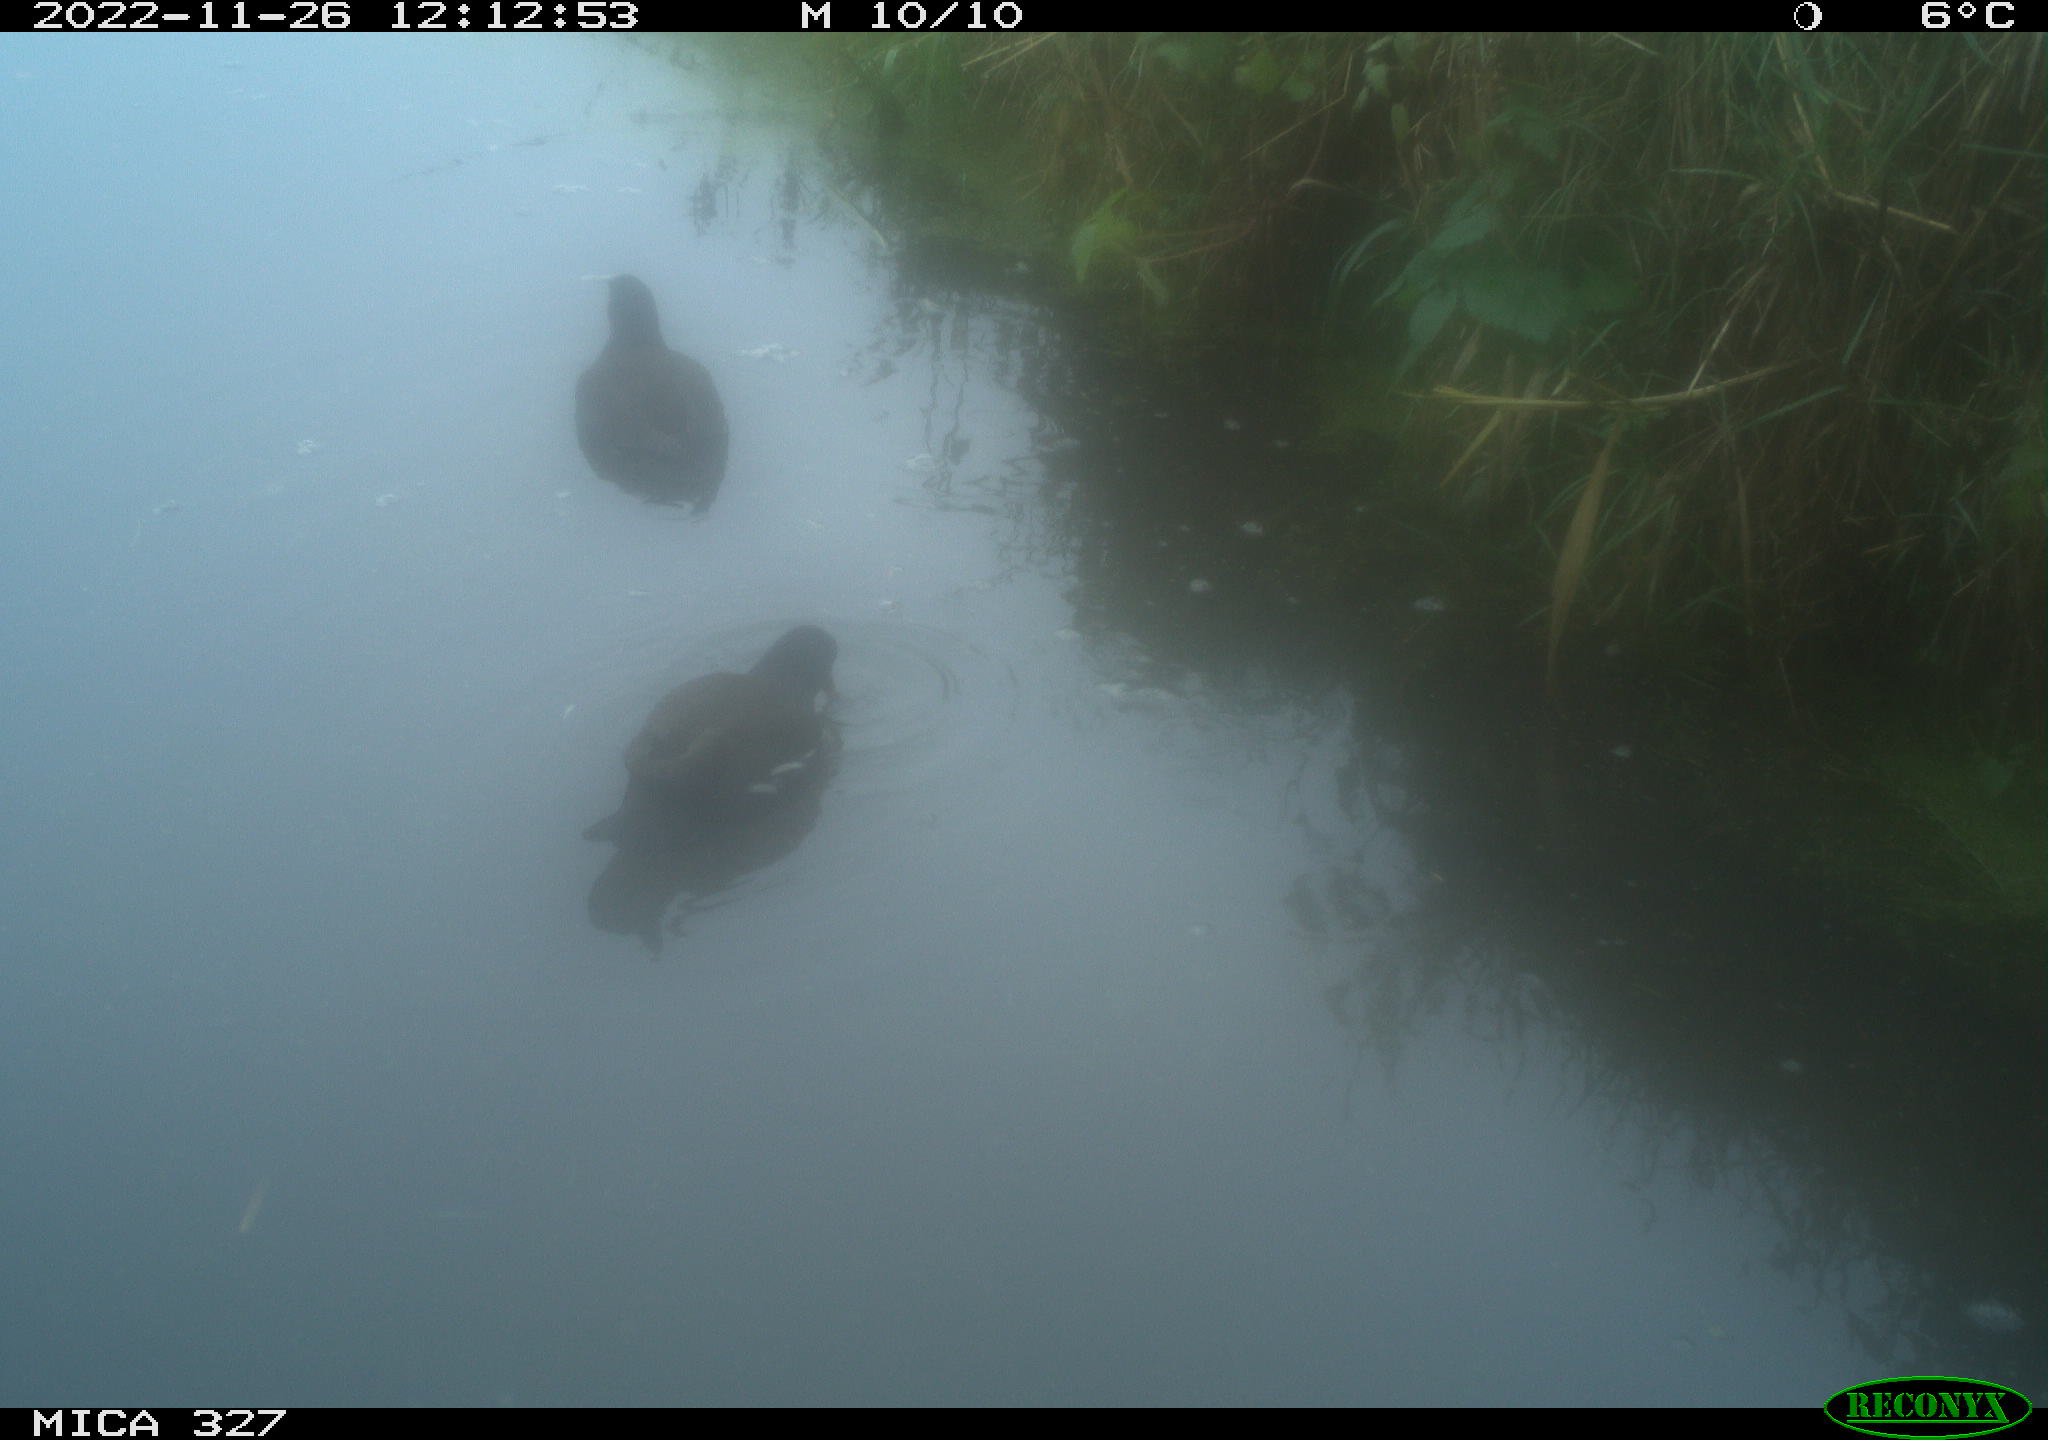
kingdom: Animalia
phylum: Chordata
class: Aves
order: Gruiformes
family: Rallidae
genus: Gallinula
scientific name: Gallinula chloropus
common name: Common moorhen
